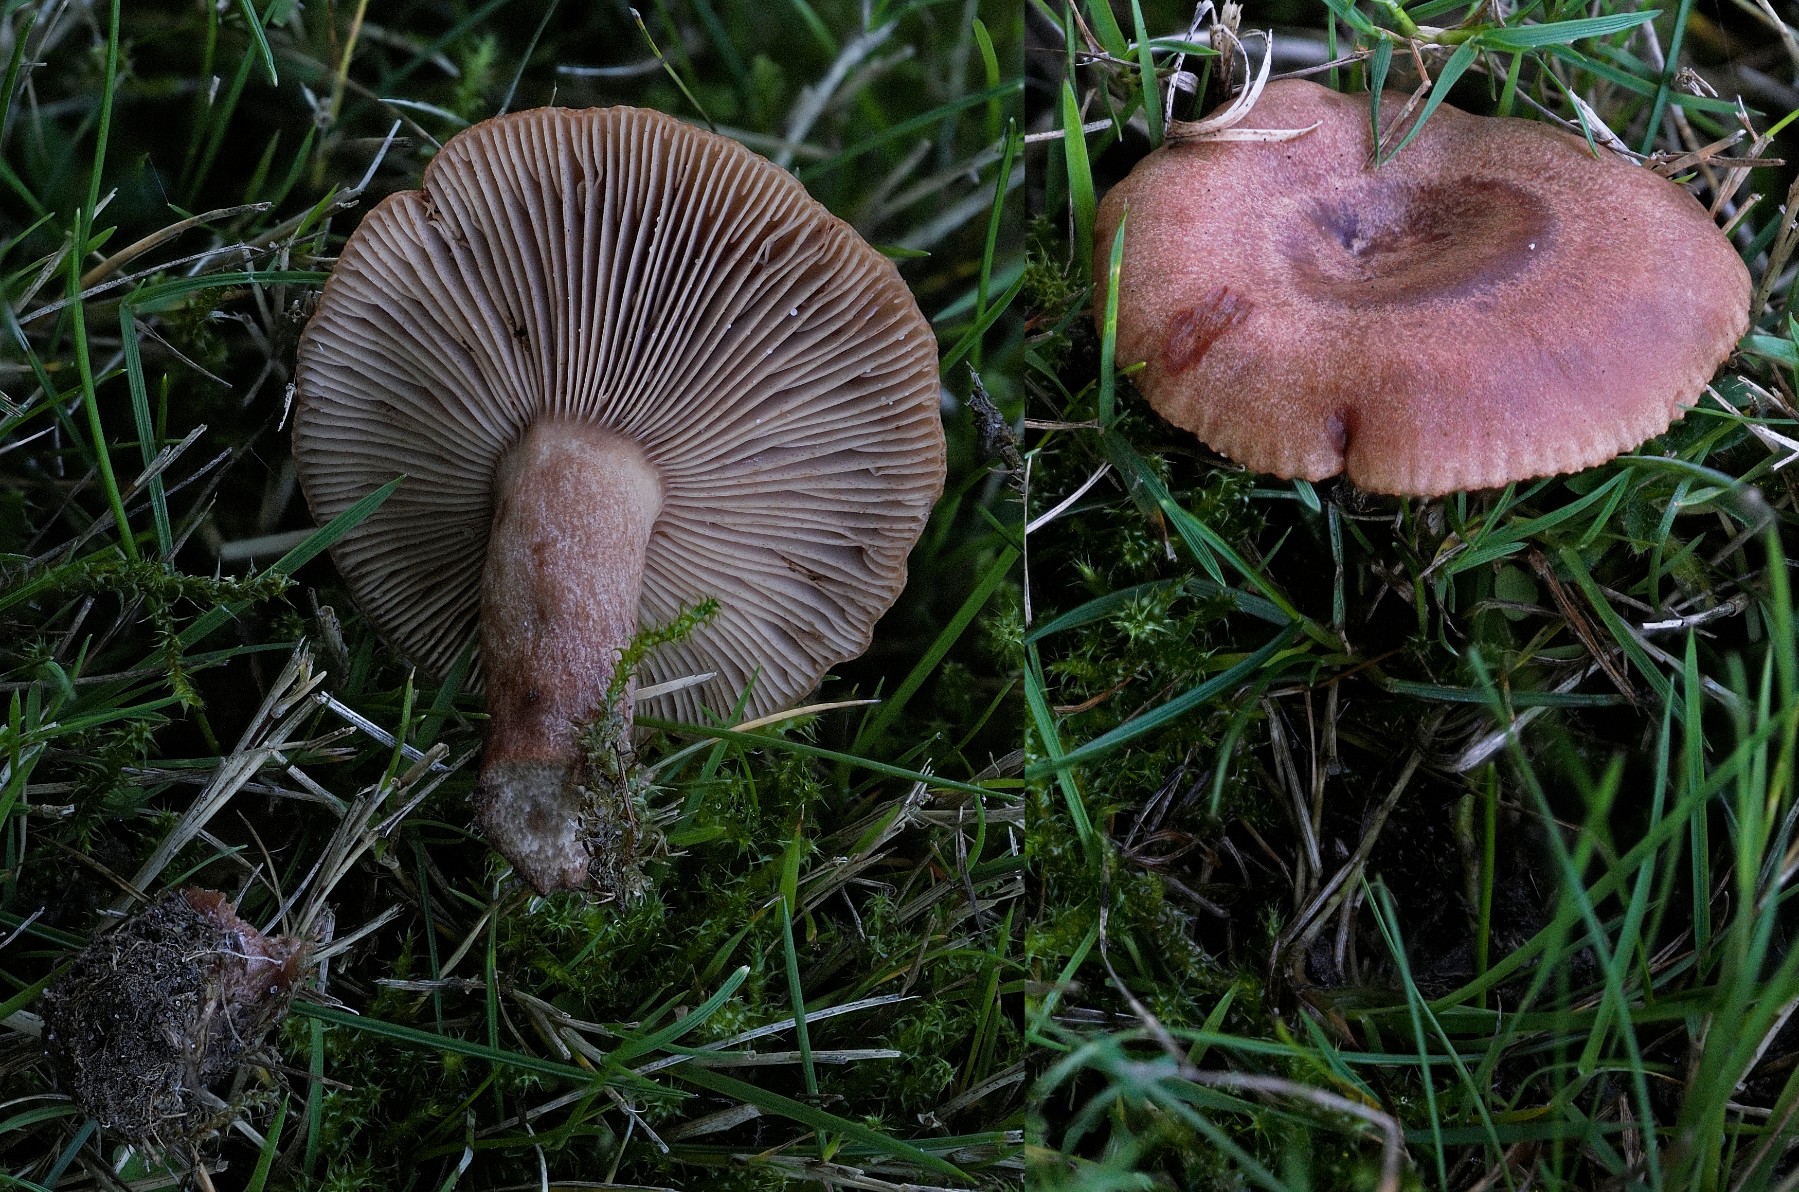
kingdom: Fungi
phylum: Basidiomycota
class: Agaricomycetes
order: Russulales
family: Russulaceae
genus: Lactarius
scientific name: Lactarius quietus
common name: ege-mælkehat
